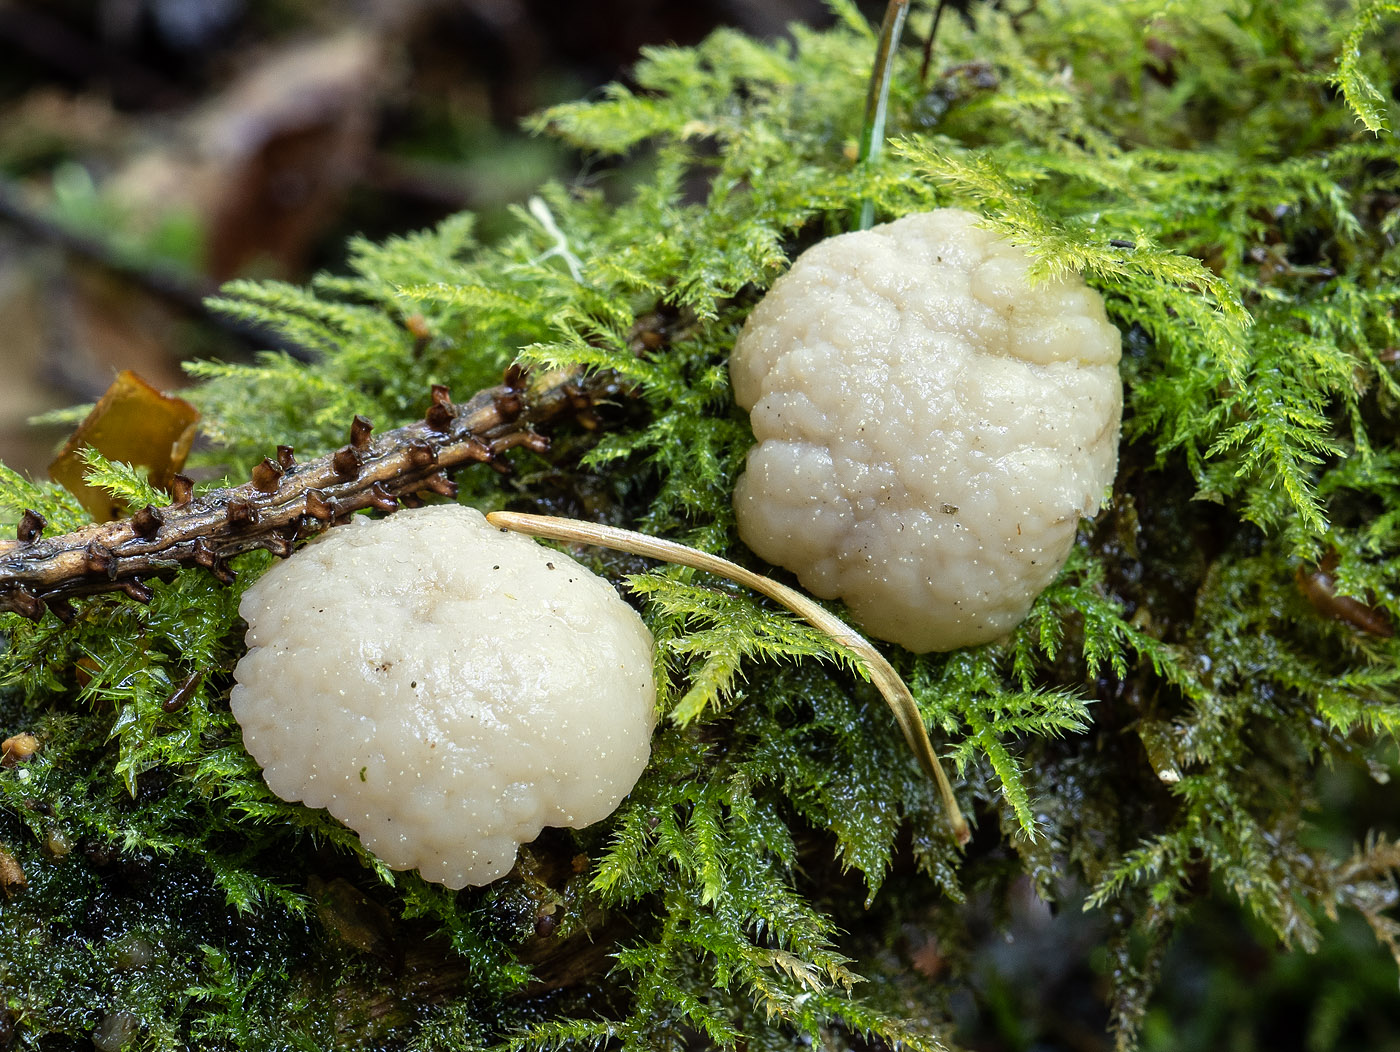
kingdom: Fungi
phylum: Ascomycota
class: Leotiomycetes
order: Helotiales
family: Tricladiaceae
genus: Cudoniella
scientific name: Cudoniella
